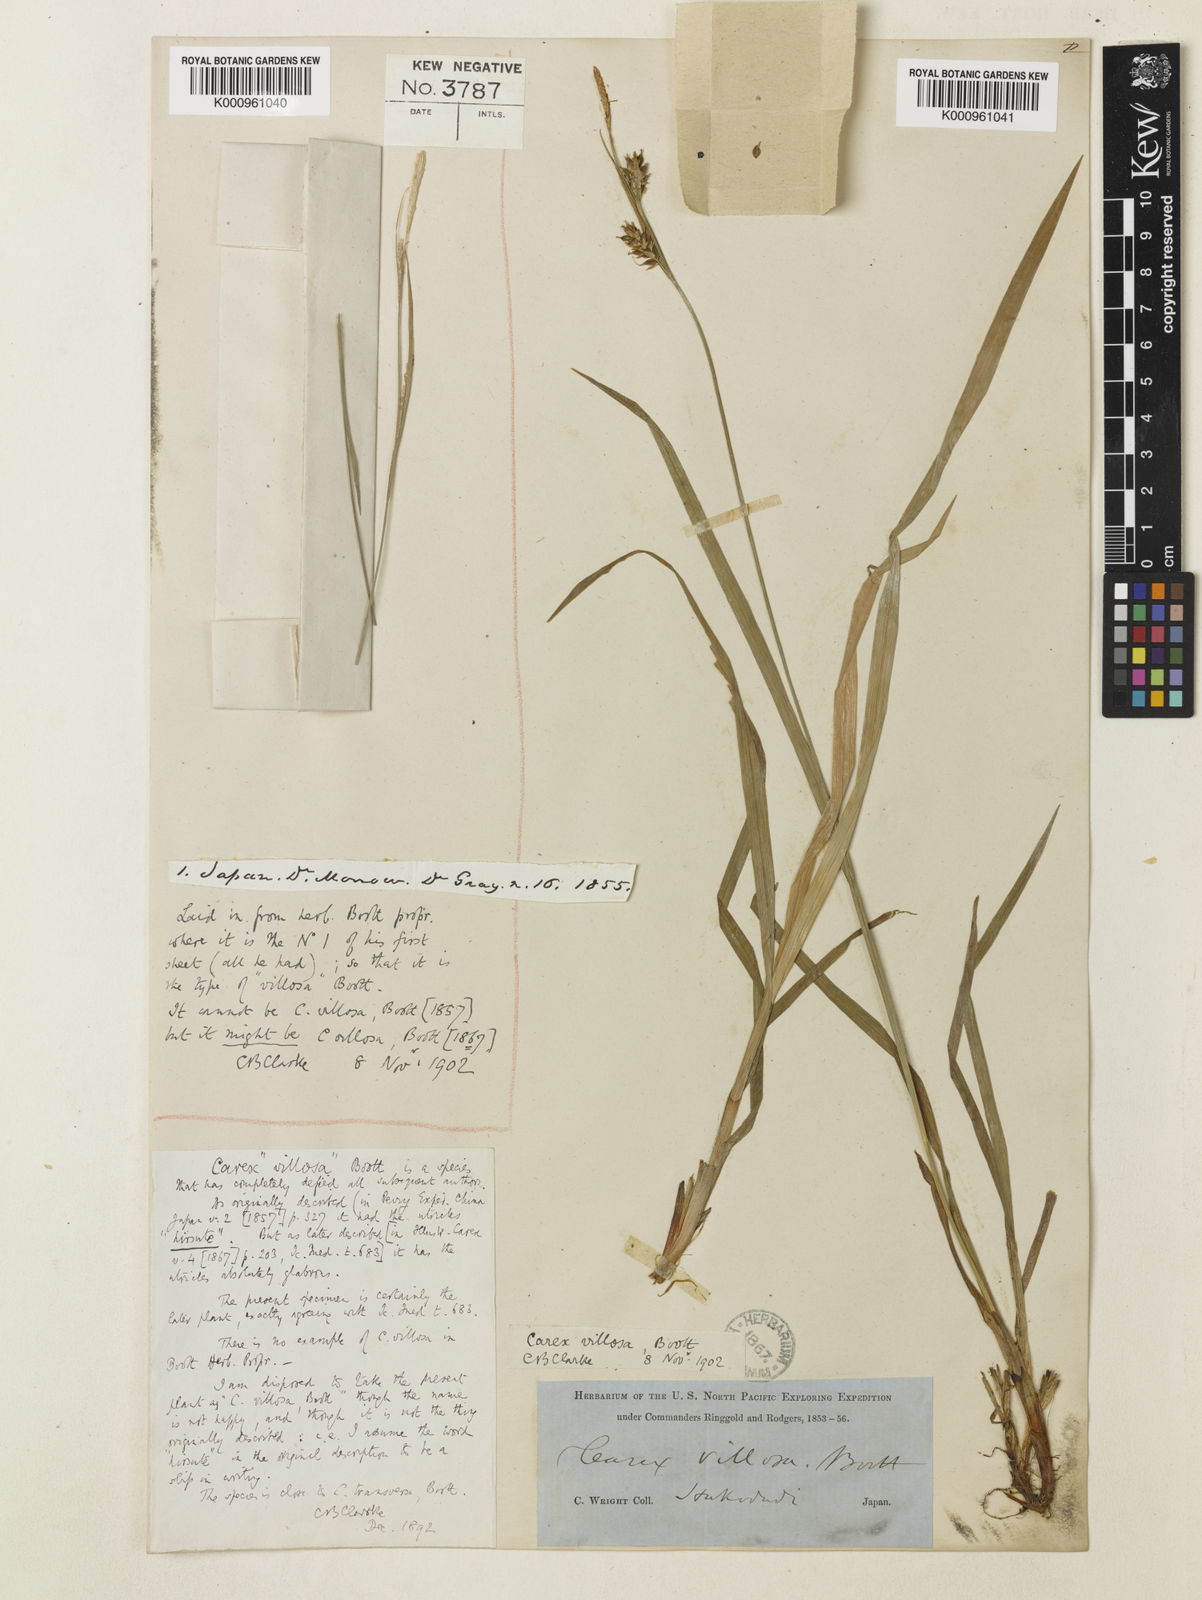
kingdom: Plantae
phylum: Tracheophyta
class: Liliopsida
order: Poales
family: Cyperaceae
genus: Carex
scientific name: Carex latisquamea
